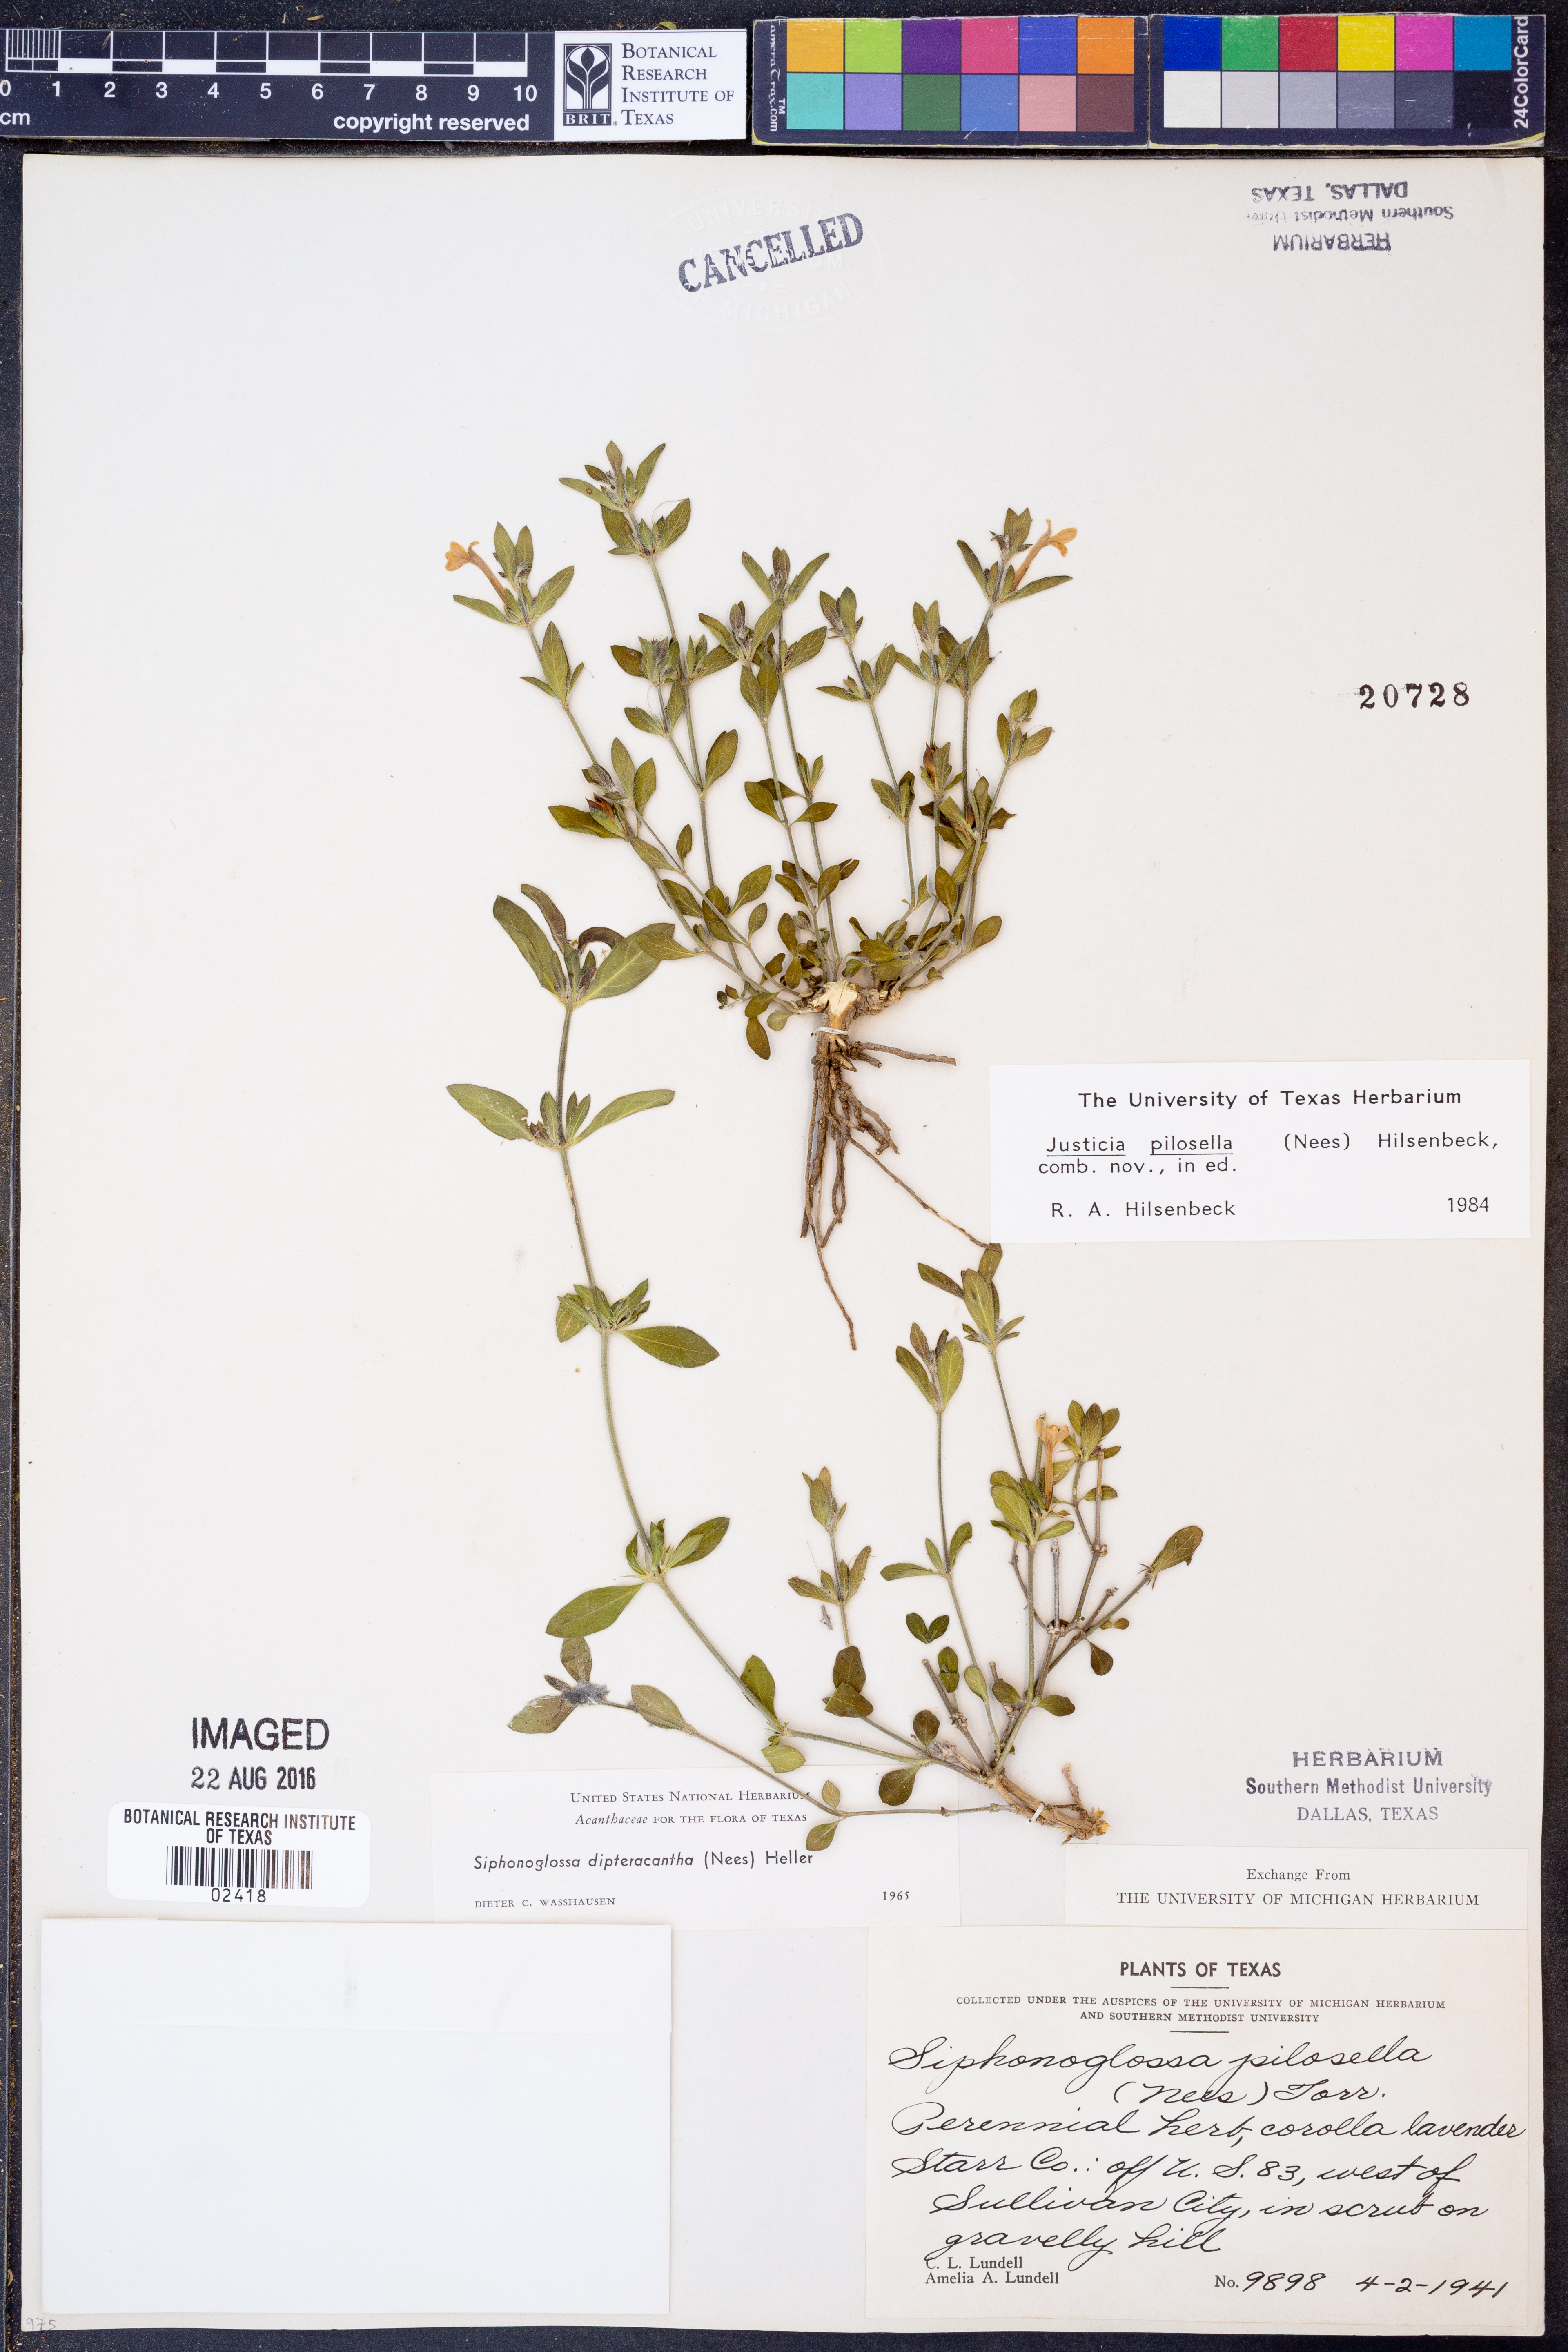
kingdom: Plantae
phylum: Tracheophyta
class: Magnoliopsida
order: Lamiales
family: Acanthaceae
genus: Justicia
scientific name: Justicia pilosella
